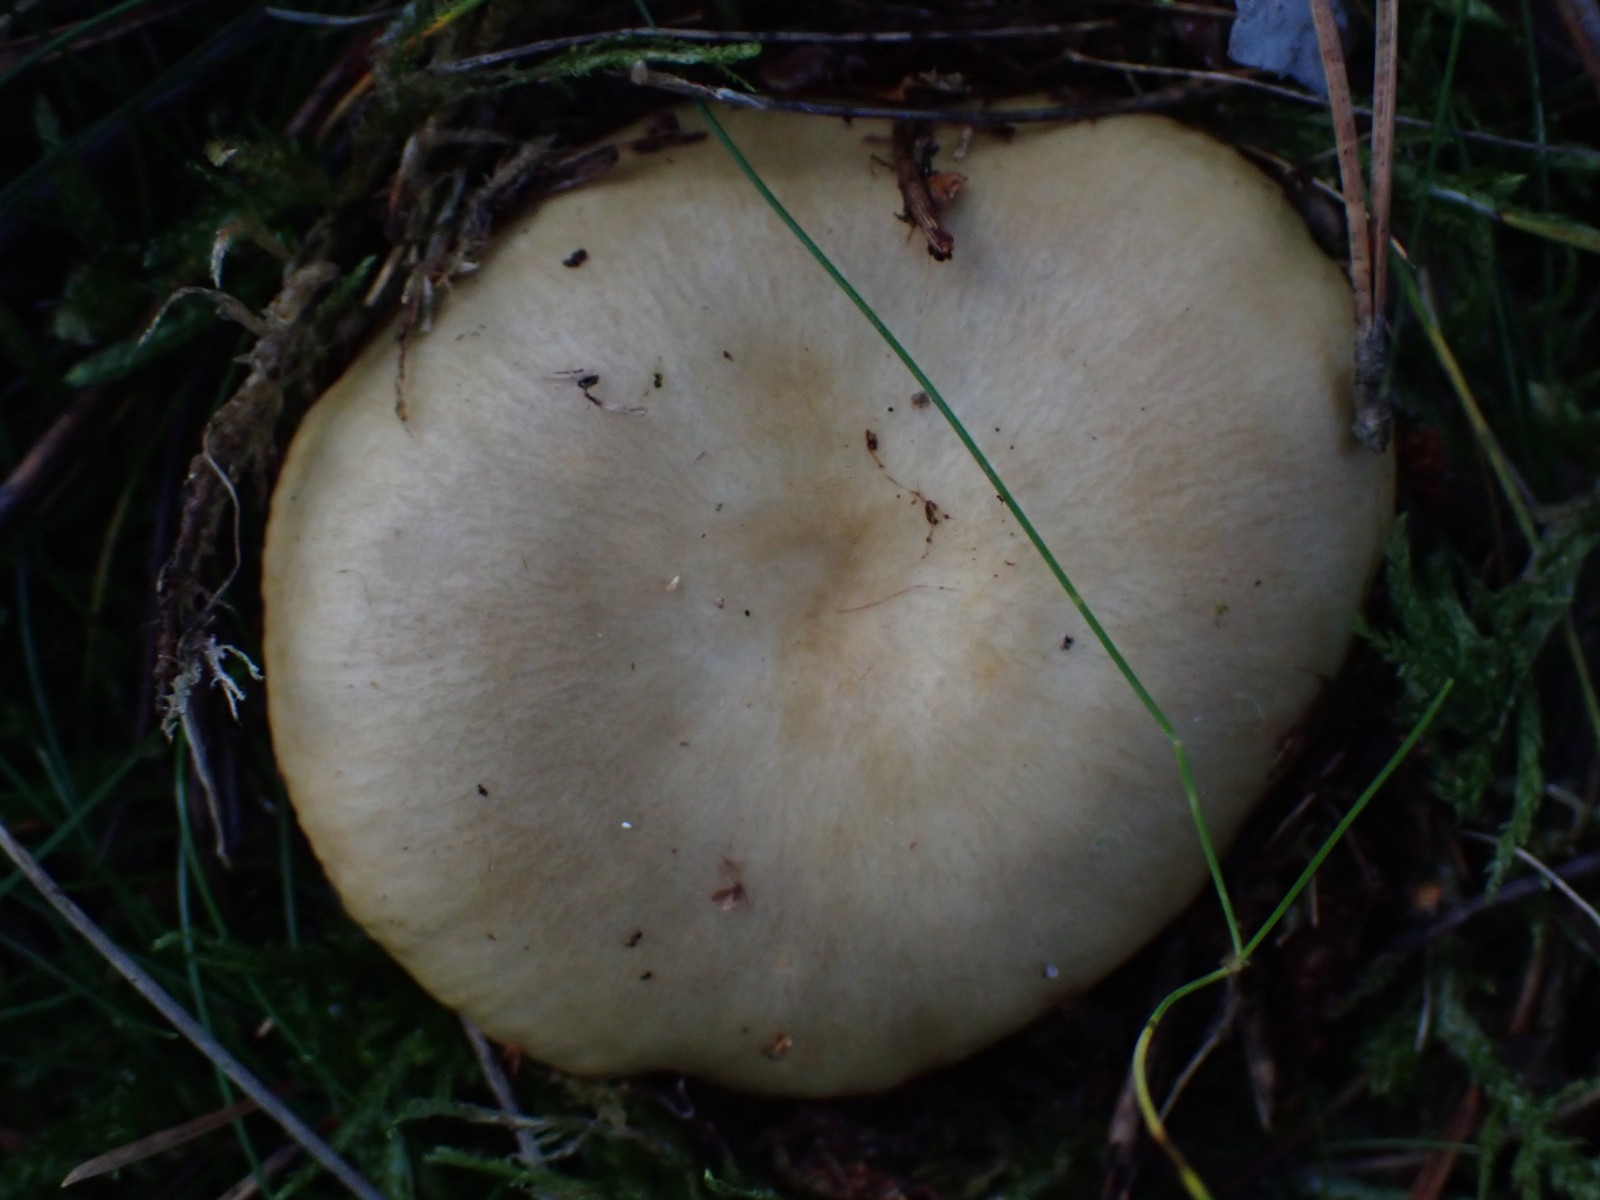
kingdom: Fungi
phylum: Basidiomycota
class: Agaricomycetes
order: Russulales
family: Russulaceae
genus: Russula
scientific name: Russula ochroleuca
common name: okkergul skørhat
